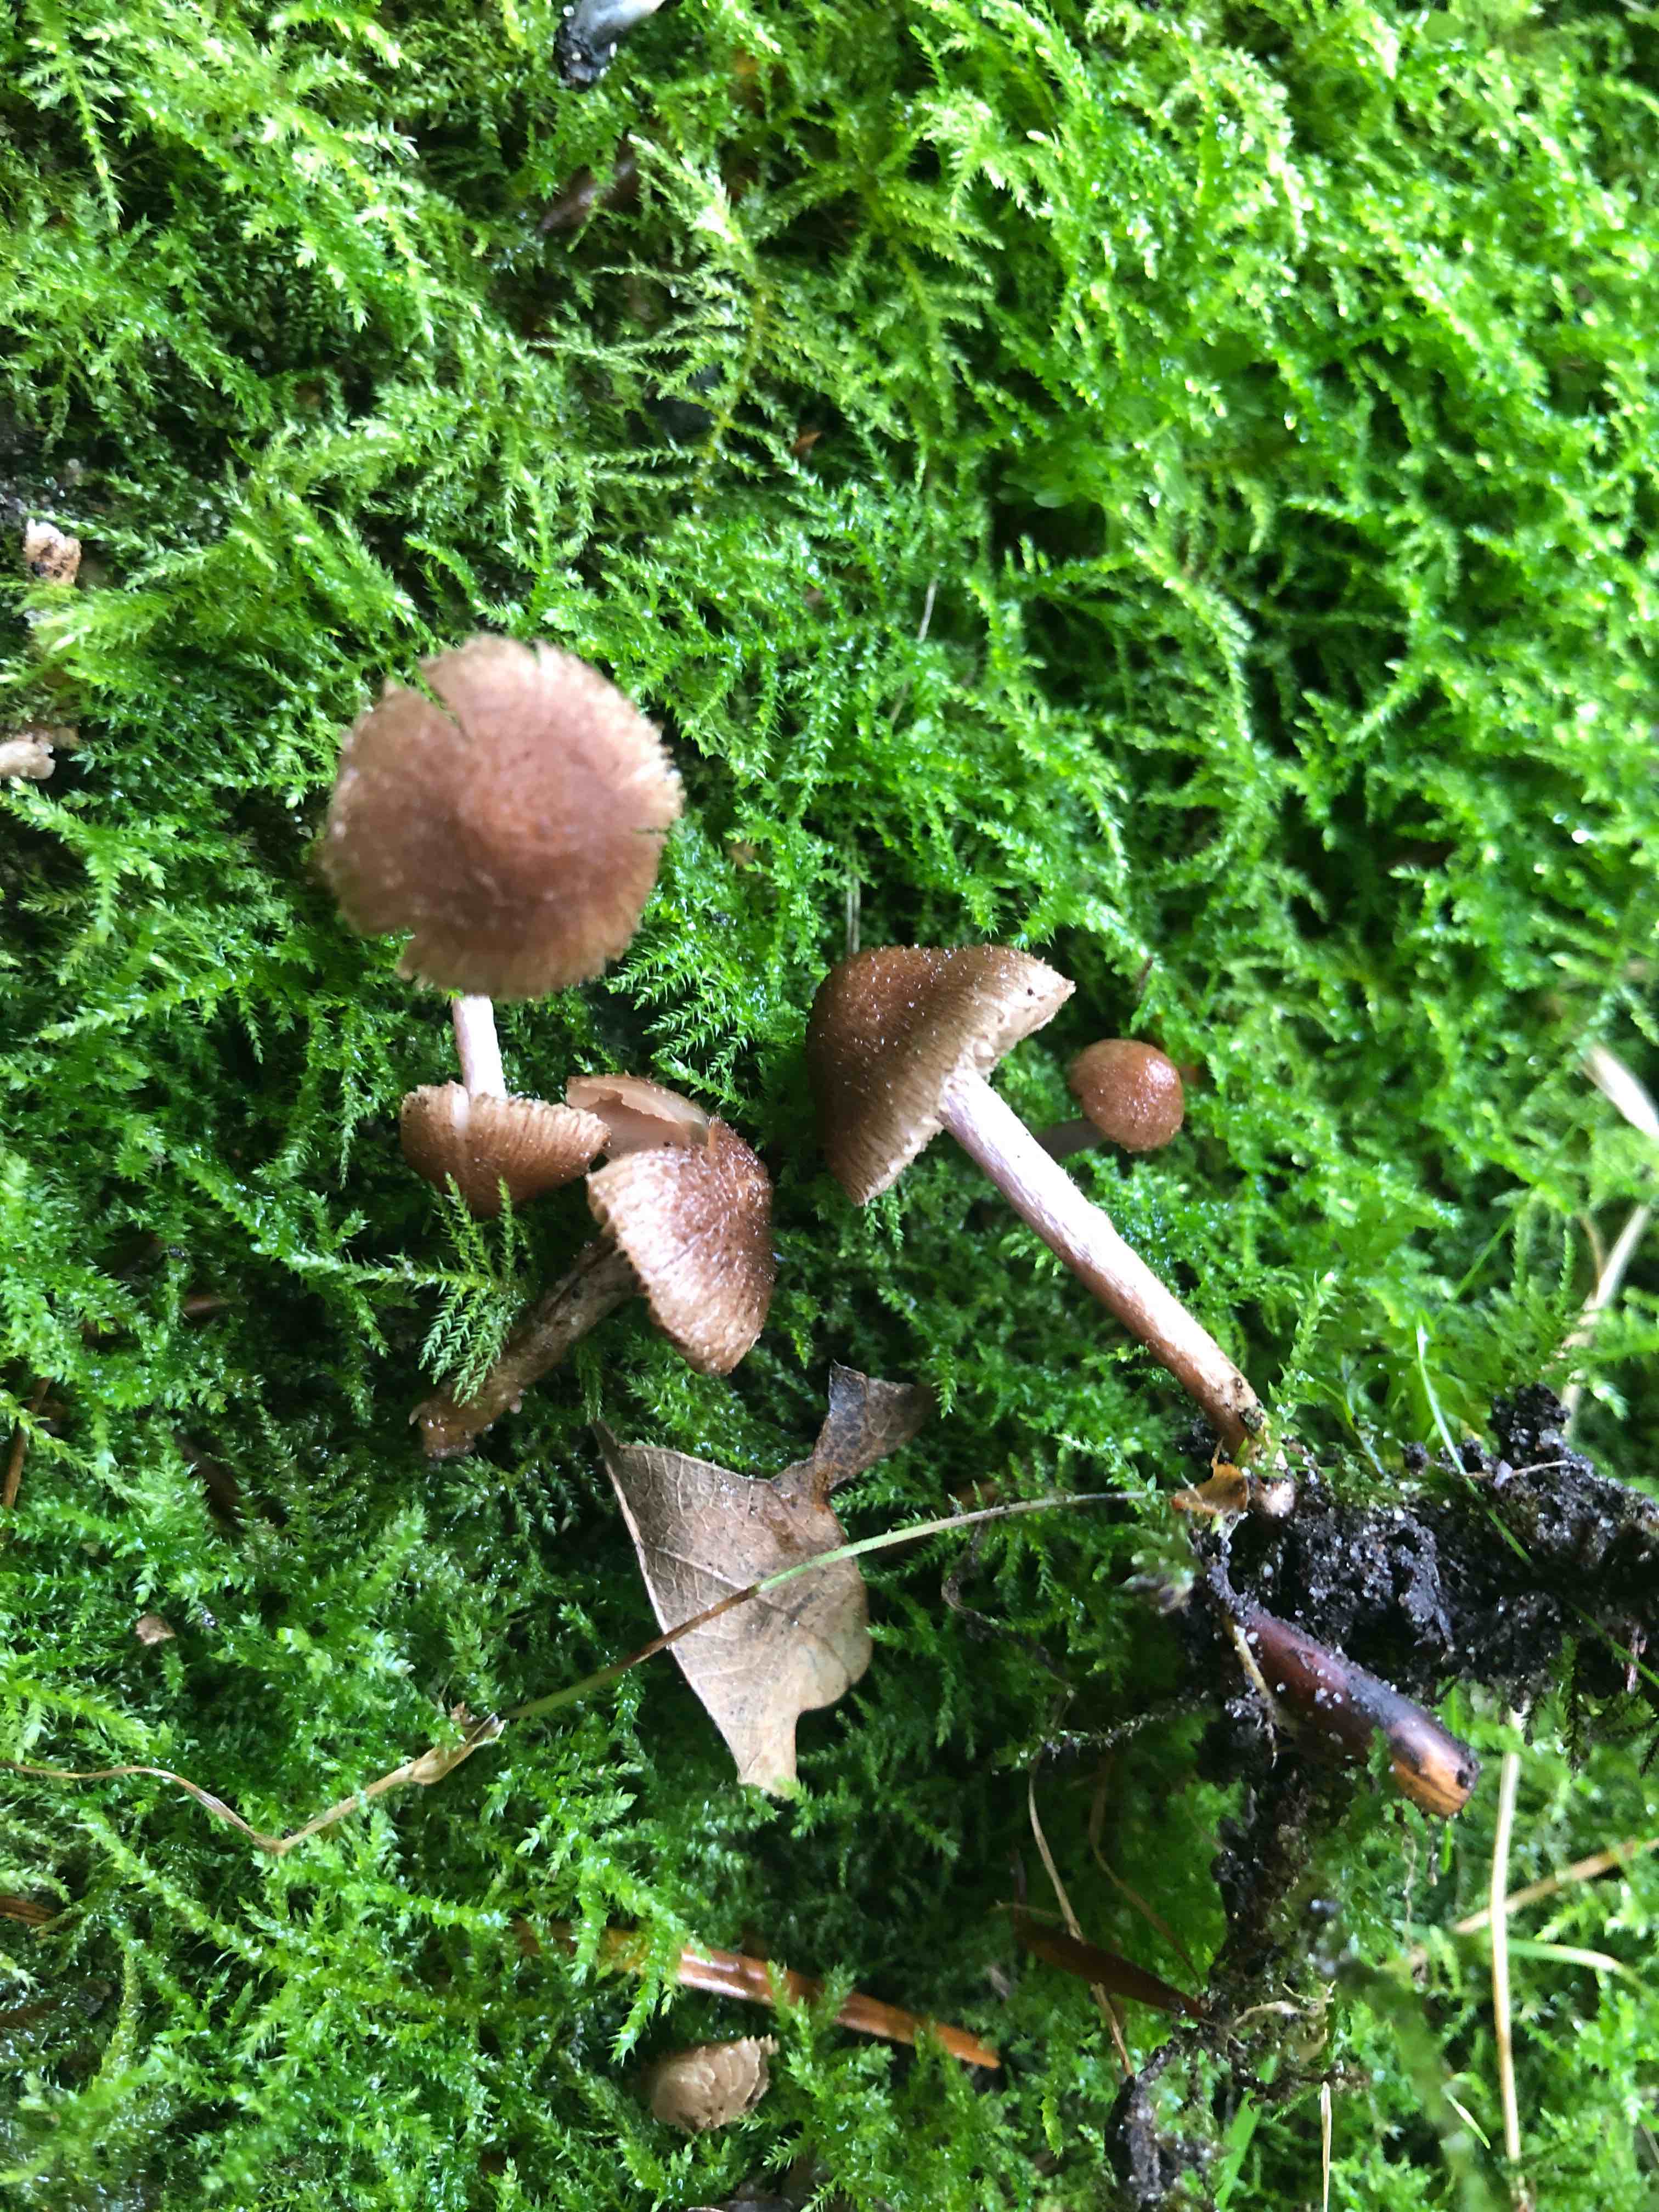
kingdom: Fungi
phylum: Basidiomycota
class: Agaricomycetes
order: Agaricales
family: Inocybaceae
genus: Inocybe
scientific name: Inocybe cincinnata
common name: lillabladet trævlhat
